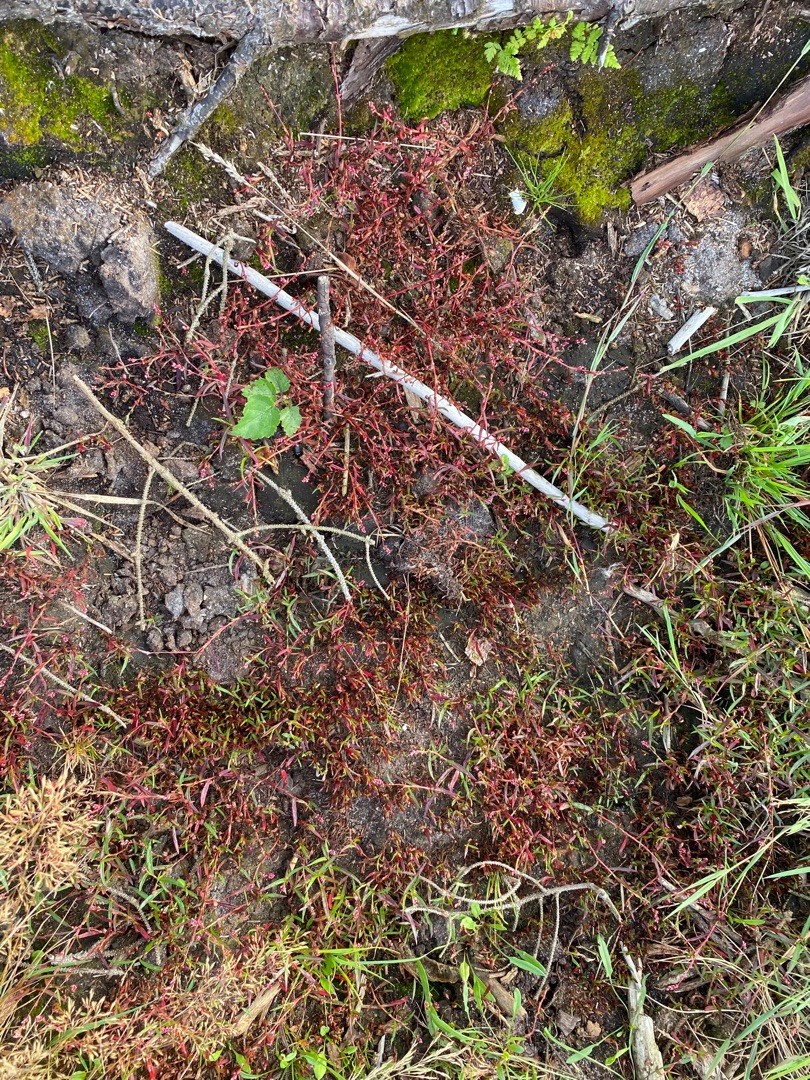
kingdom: Plantae
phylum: Tracheophyta
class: Magnoliopsida
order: Caryophyllales
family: Polygonaceae
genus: Persicaria
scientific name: Persicaria minor
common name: Liden pileurt
